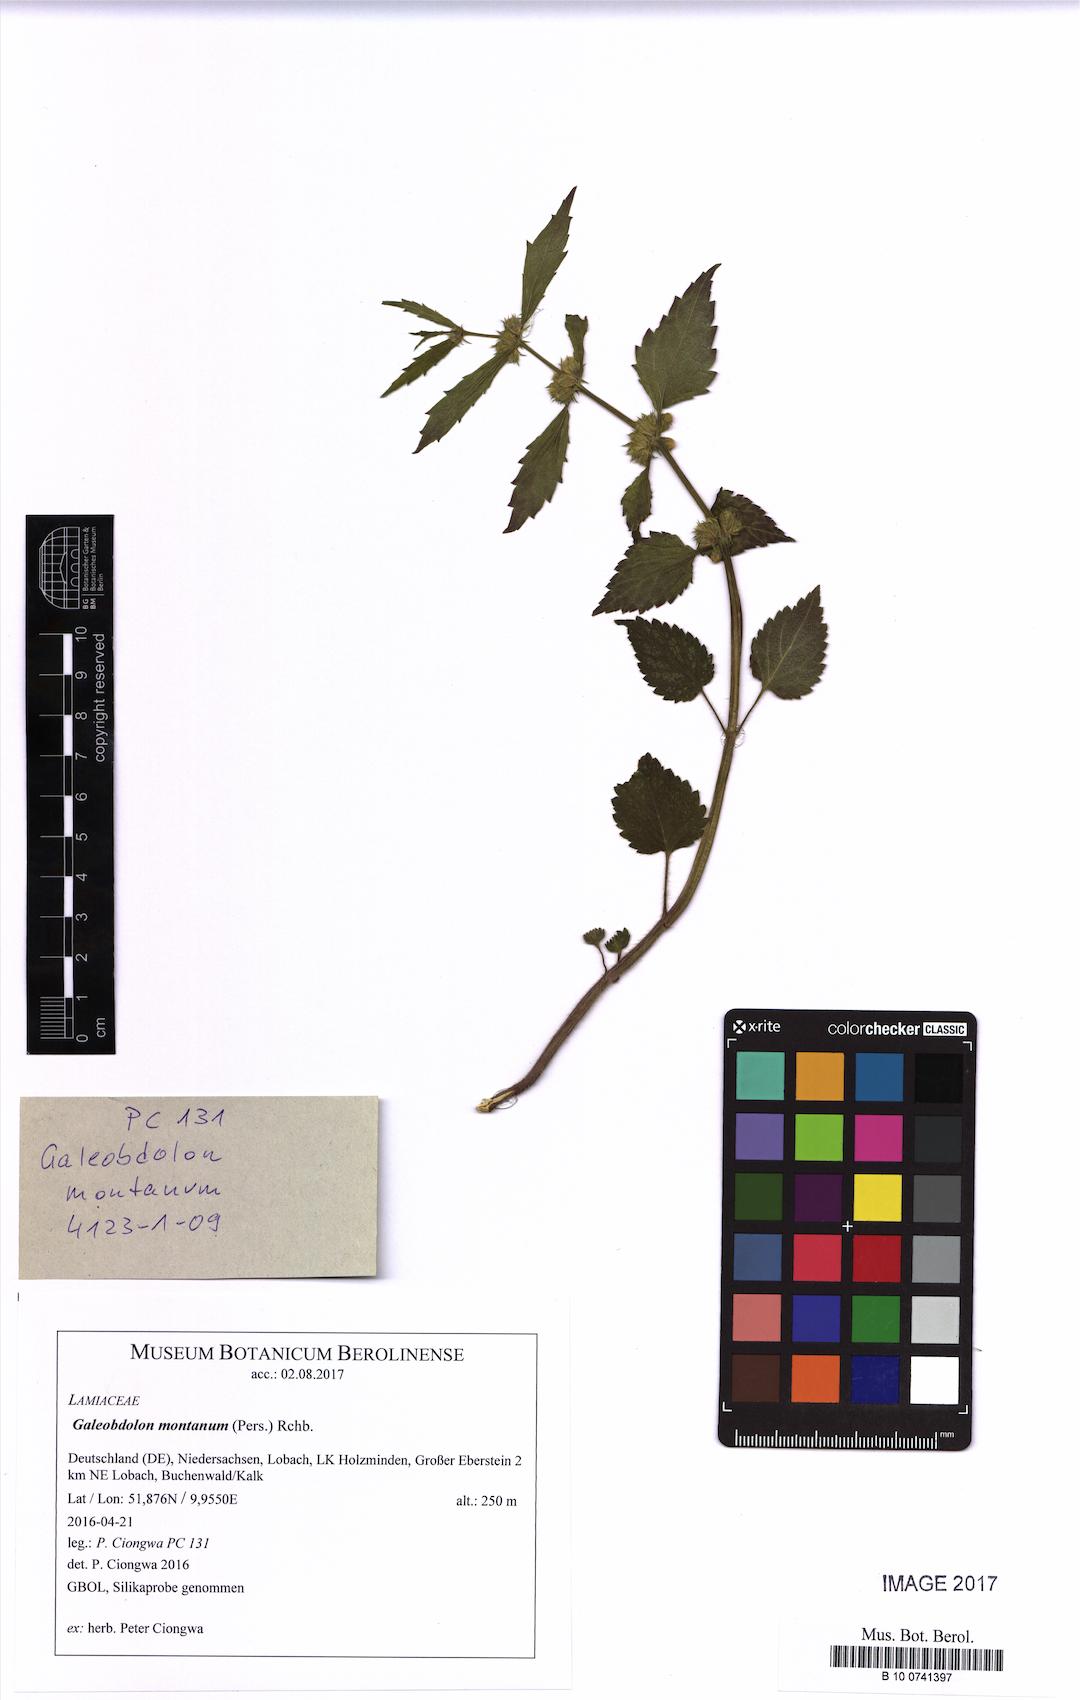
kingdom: Plantae
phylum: Tracheophyta
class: Magnoliopsida
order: Lamiales
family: Lamiaceae
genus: Lamium
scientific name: Lamium galeobdolon
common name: Yellow archangel
